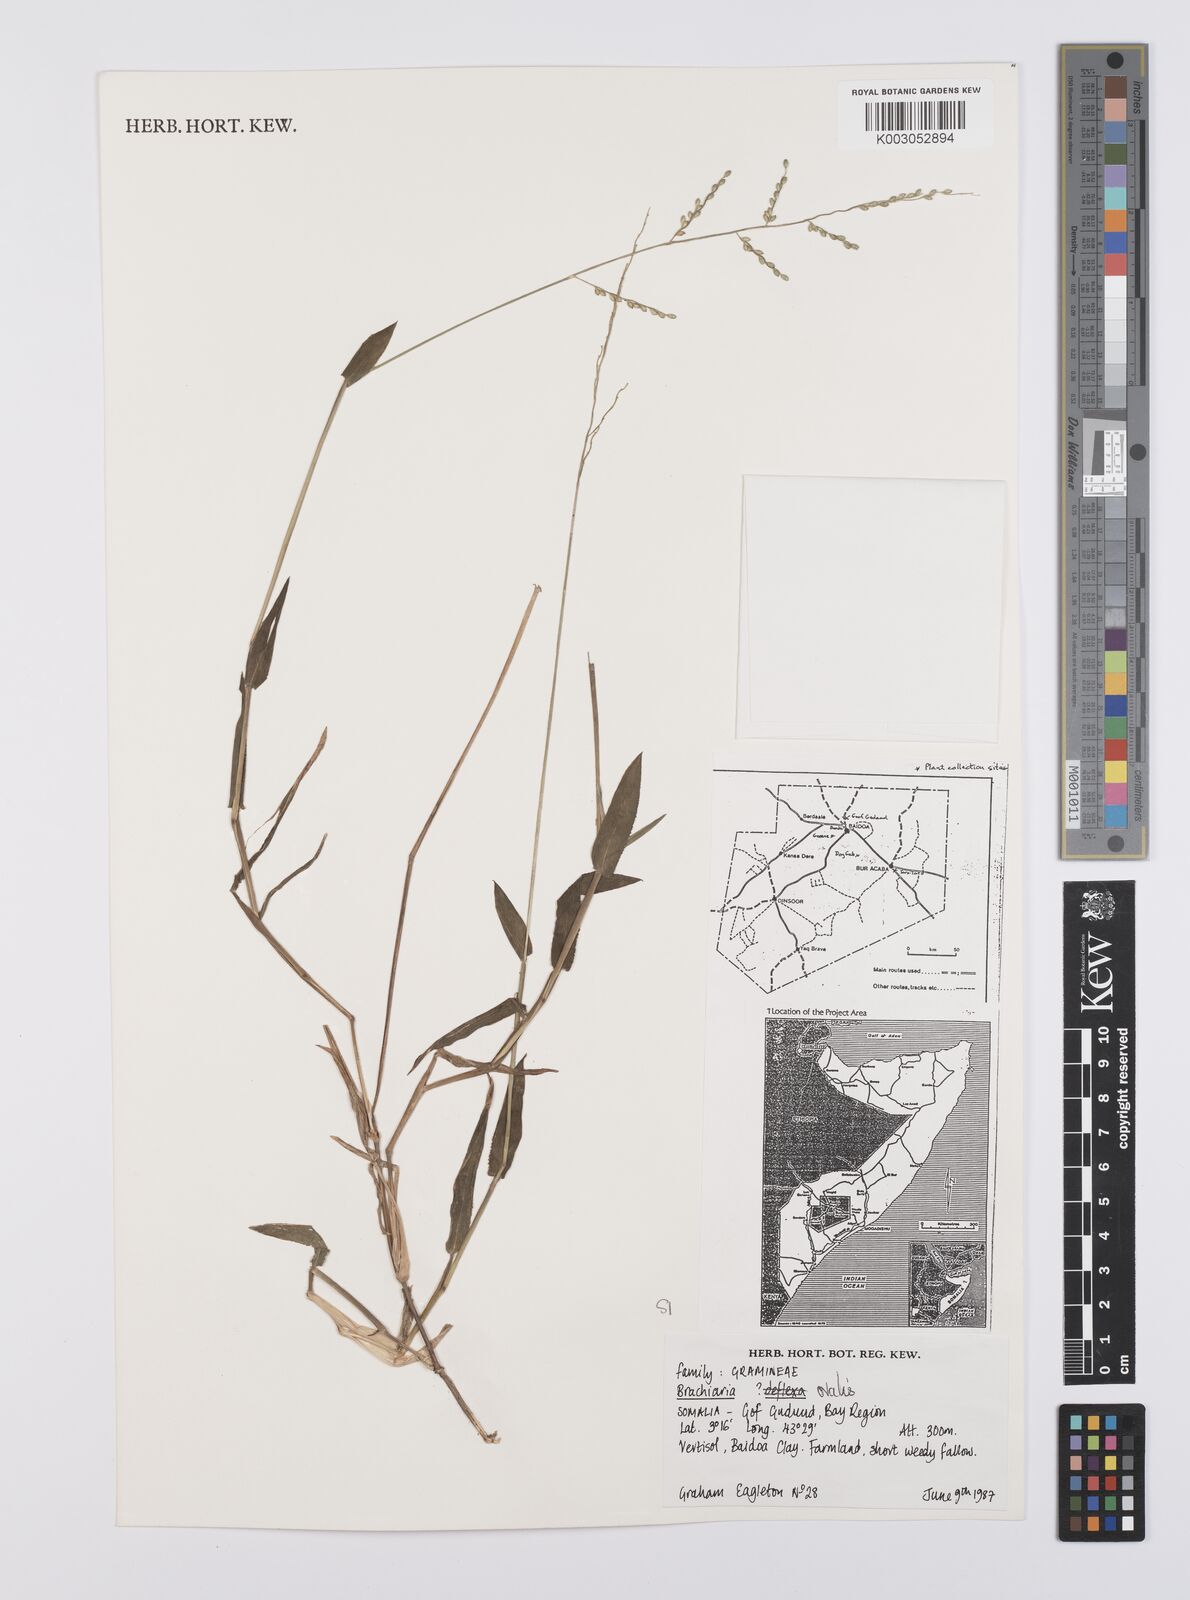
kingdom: Plantae
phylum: Tracheophyta
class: Liliopsida
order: Poales
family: Poaceae
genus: Urochloa
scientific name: Urochloa ovalis
